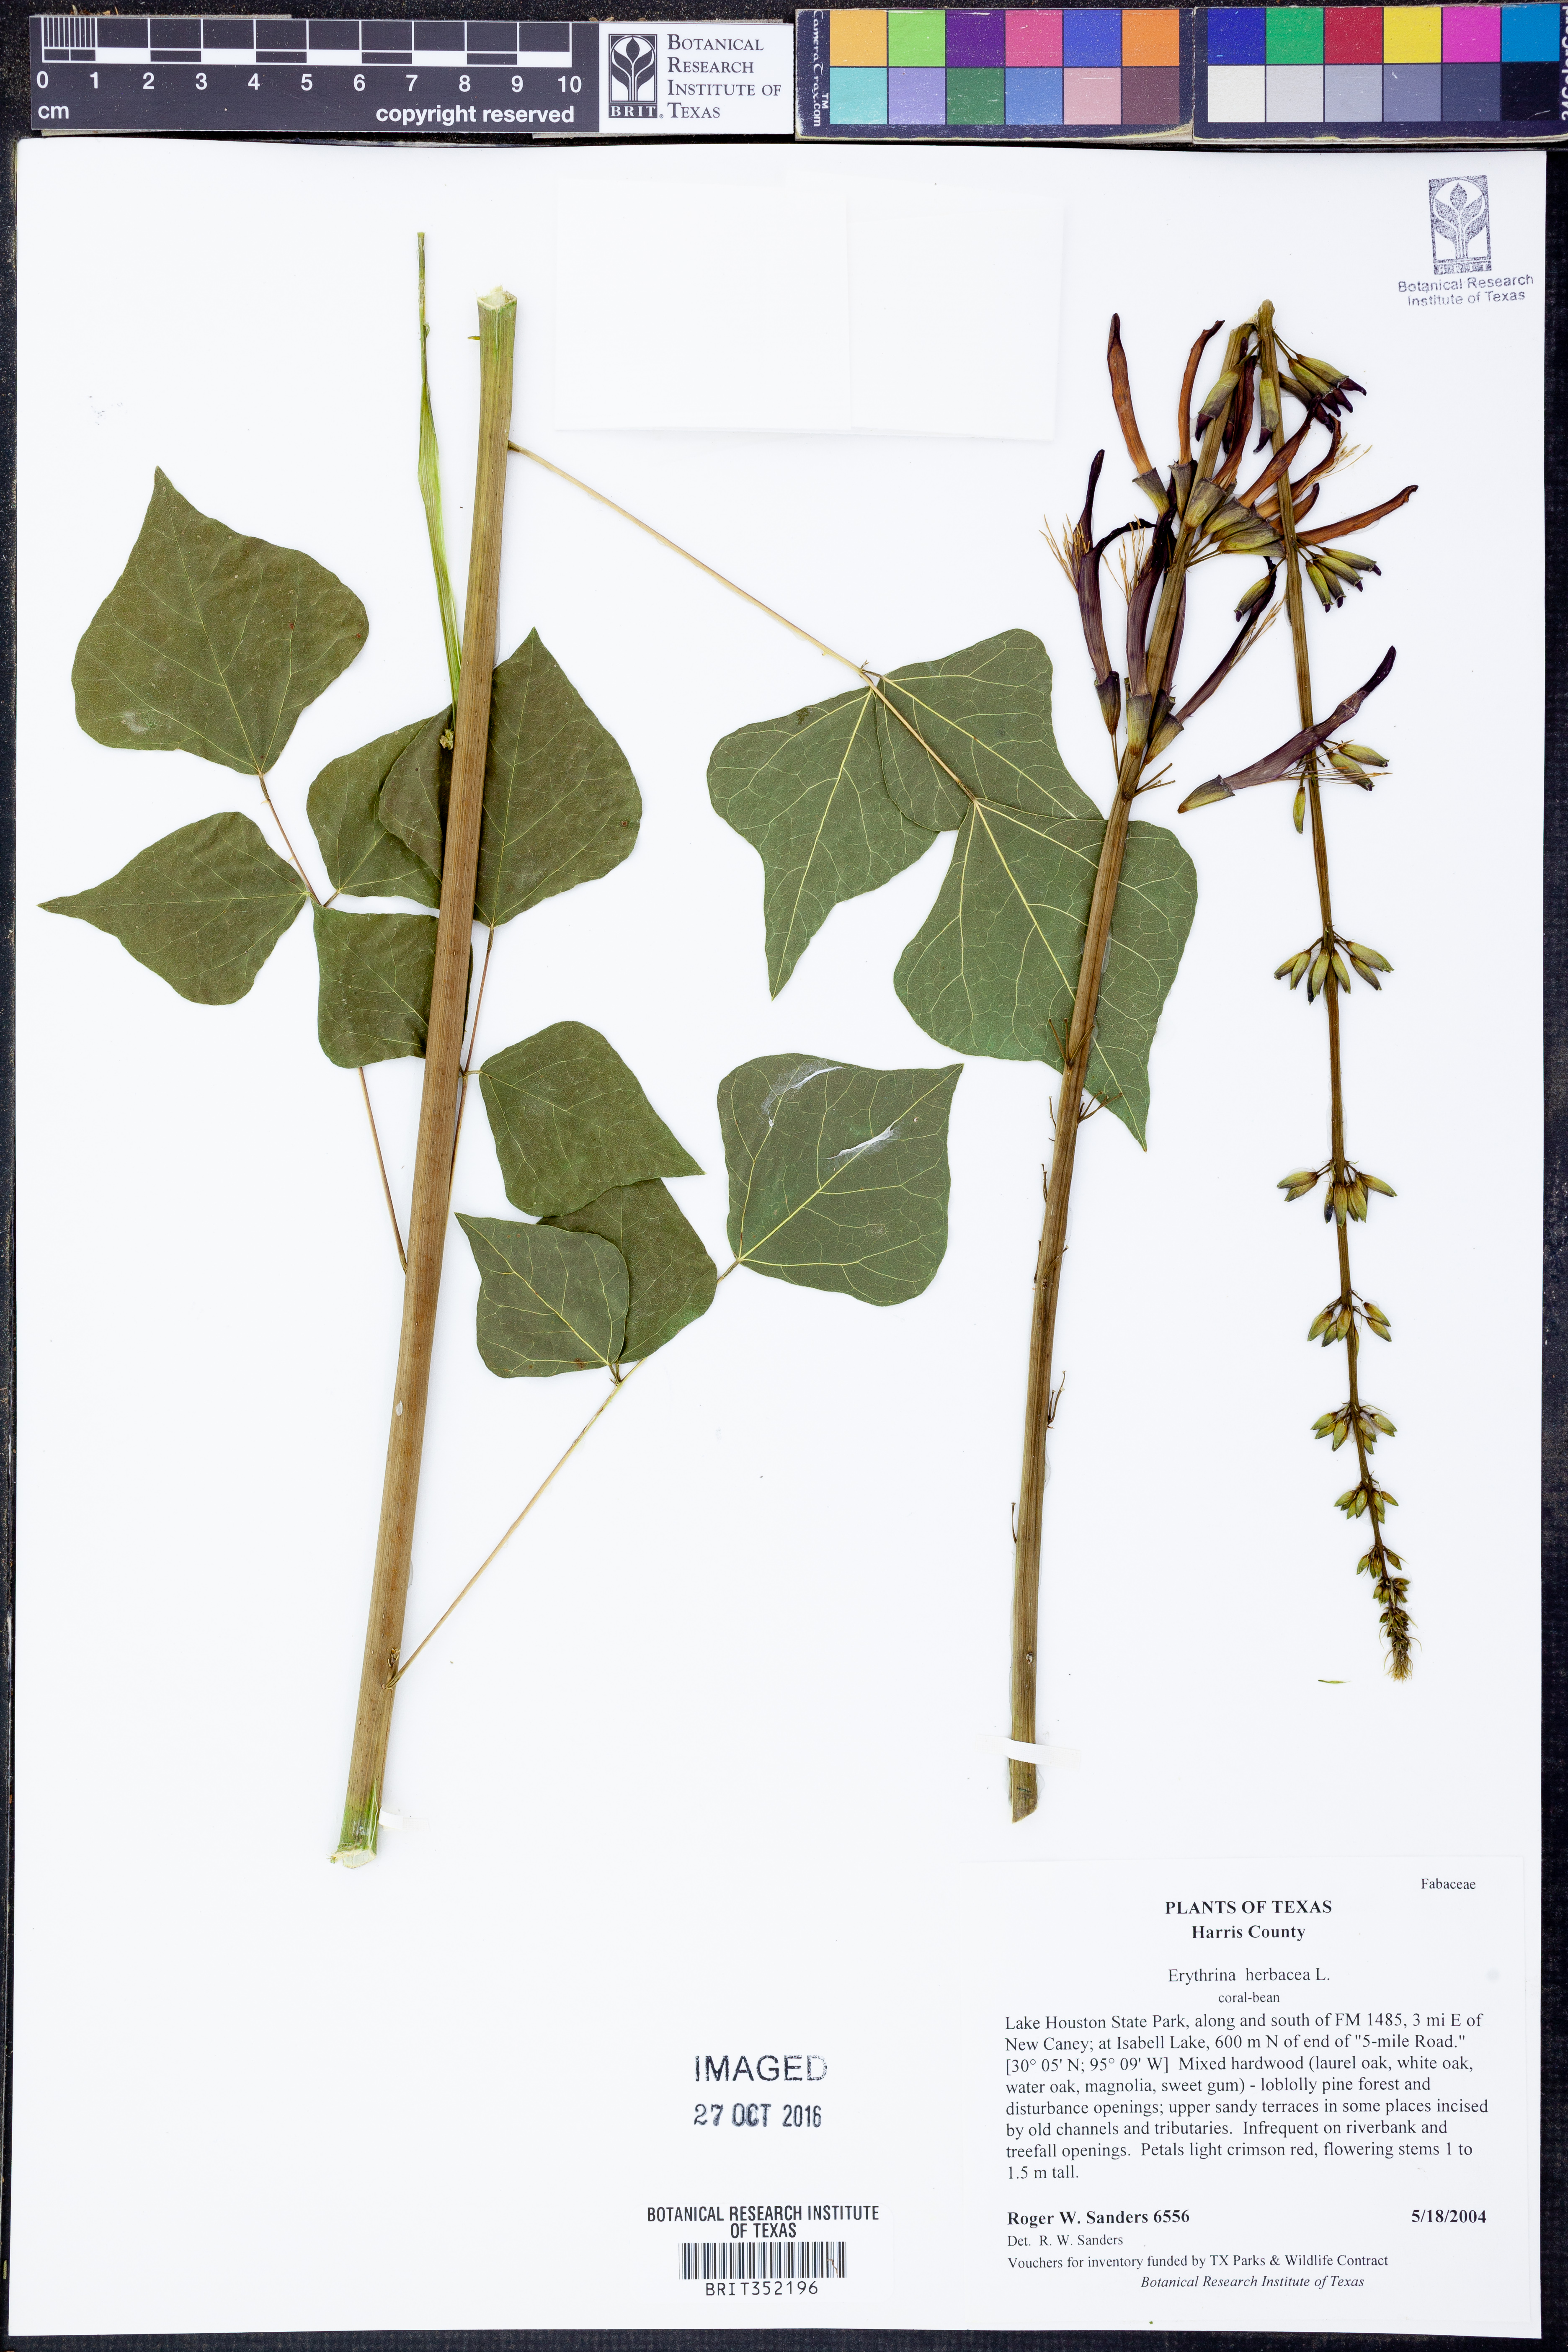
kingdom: Plantae
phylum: Tracheophyta
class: Magnoliopsida
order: Fabales
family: Fabaceae
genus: Erythrina
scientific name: Erythrina herbacea
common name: Coral-bean
